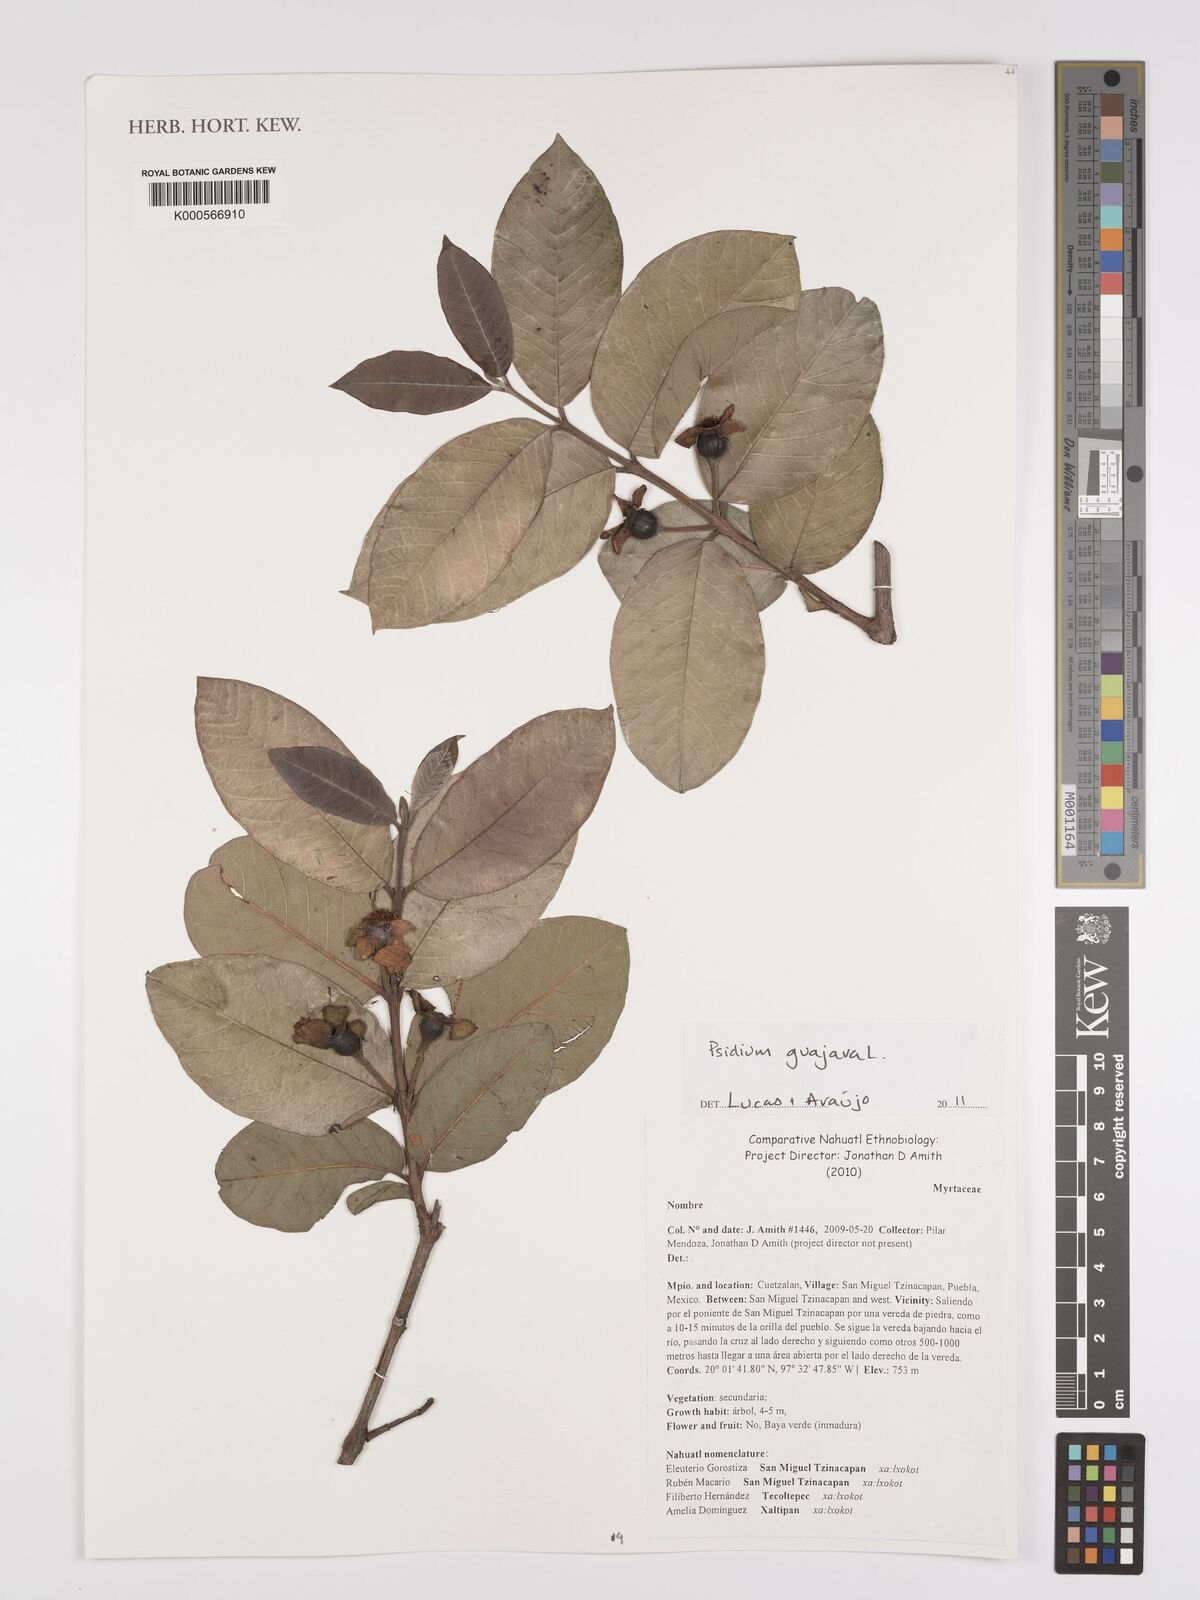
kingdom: Plantae
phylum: Tracheophyta
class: Magnoliopsida
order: Myrtales
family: Myrtaceae
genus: Psidium
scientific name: Psidium guajava
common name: Guava
